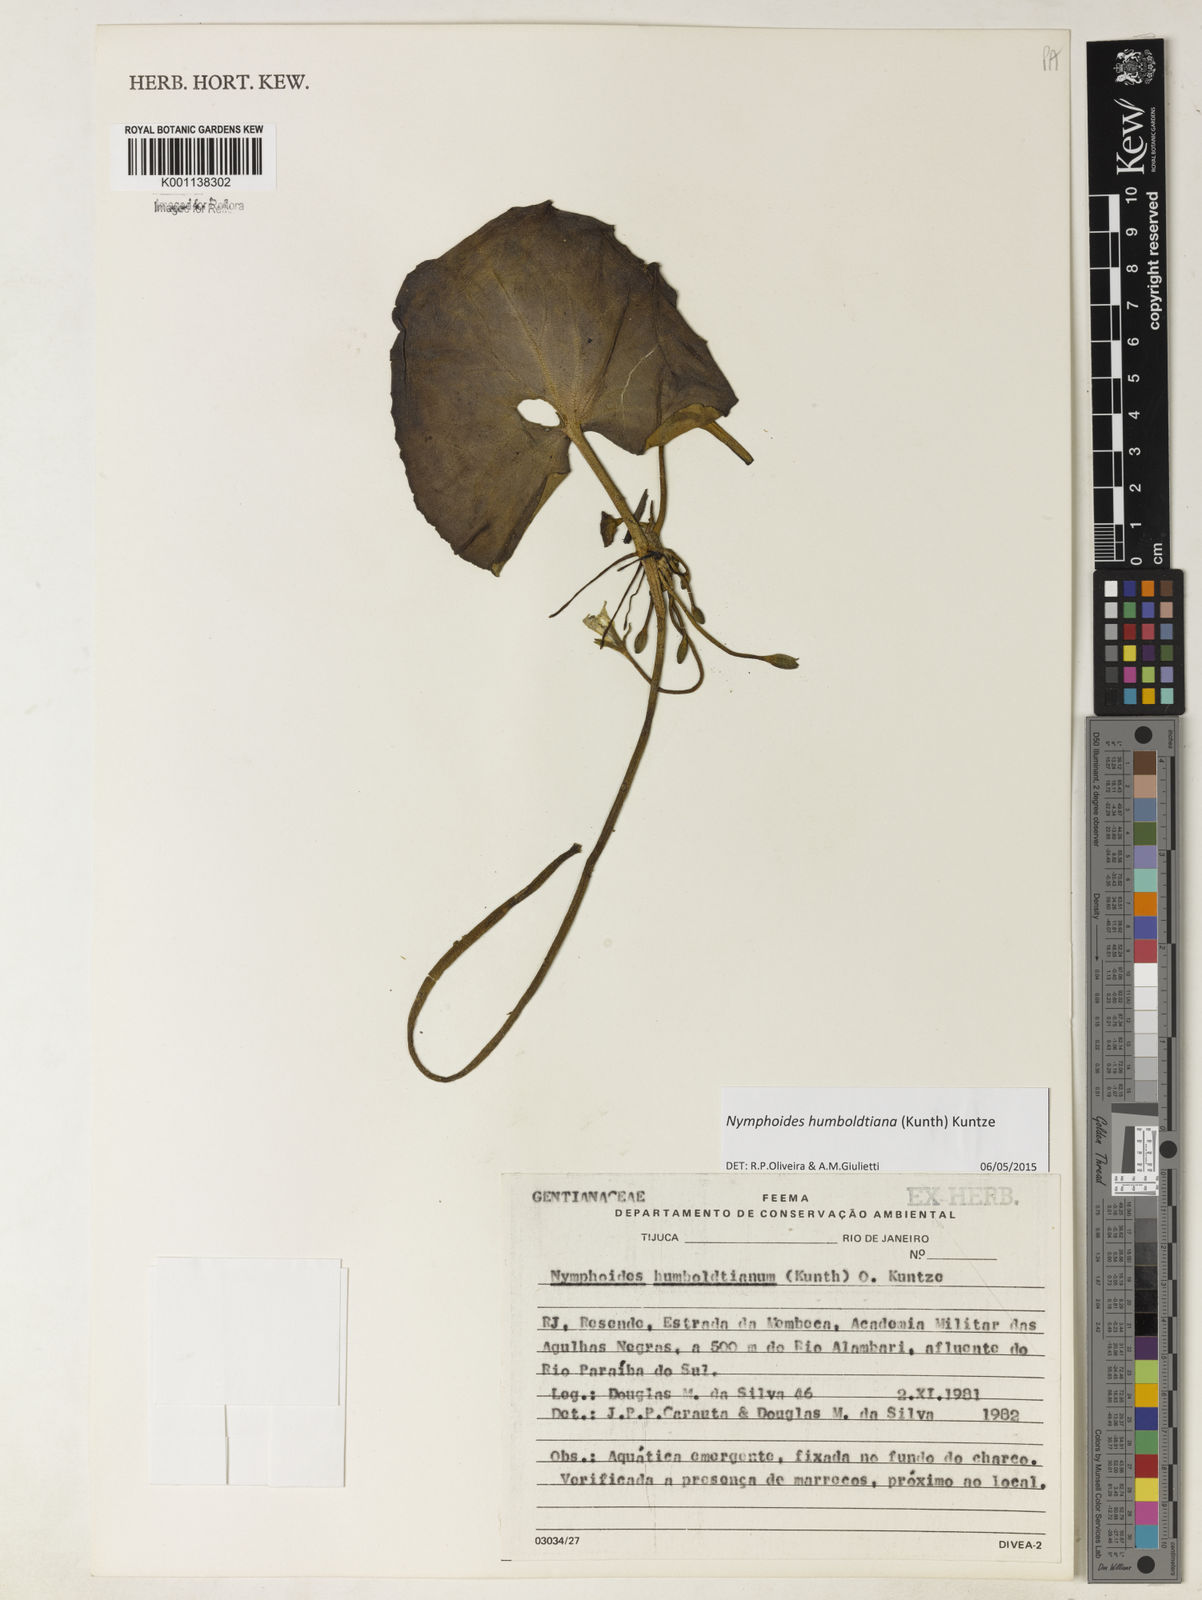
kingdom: Plantae
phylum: Tracheophyta
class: Magnoliopsida
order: Asterales
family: Menyanthaceae
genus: Nymphoides
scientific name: Nymphoides indica
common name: Water-snowflake
